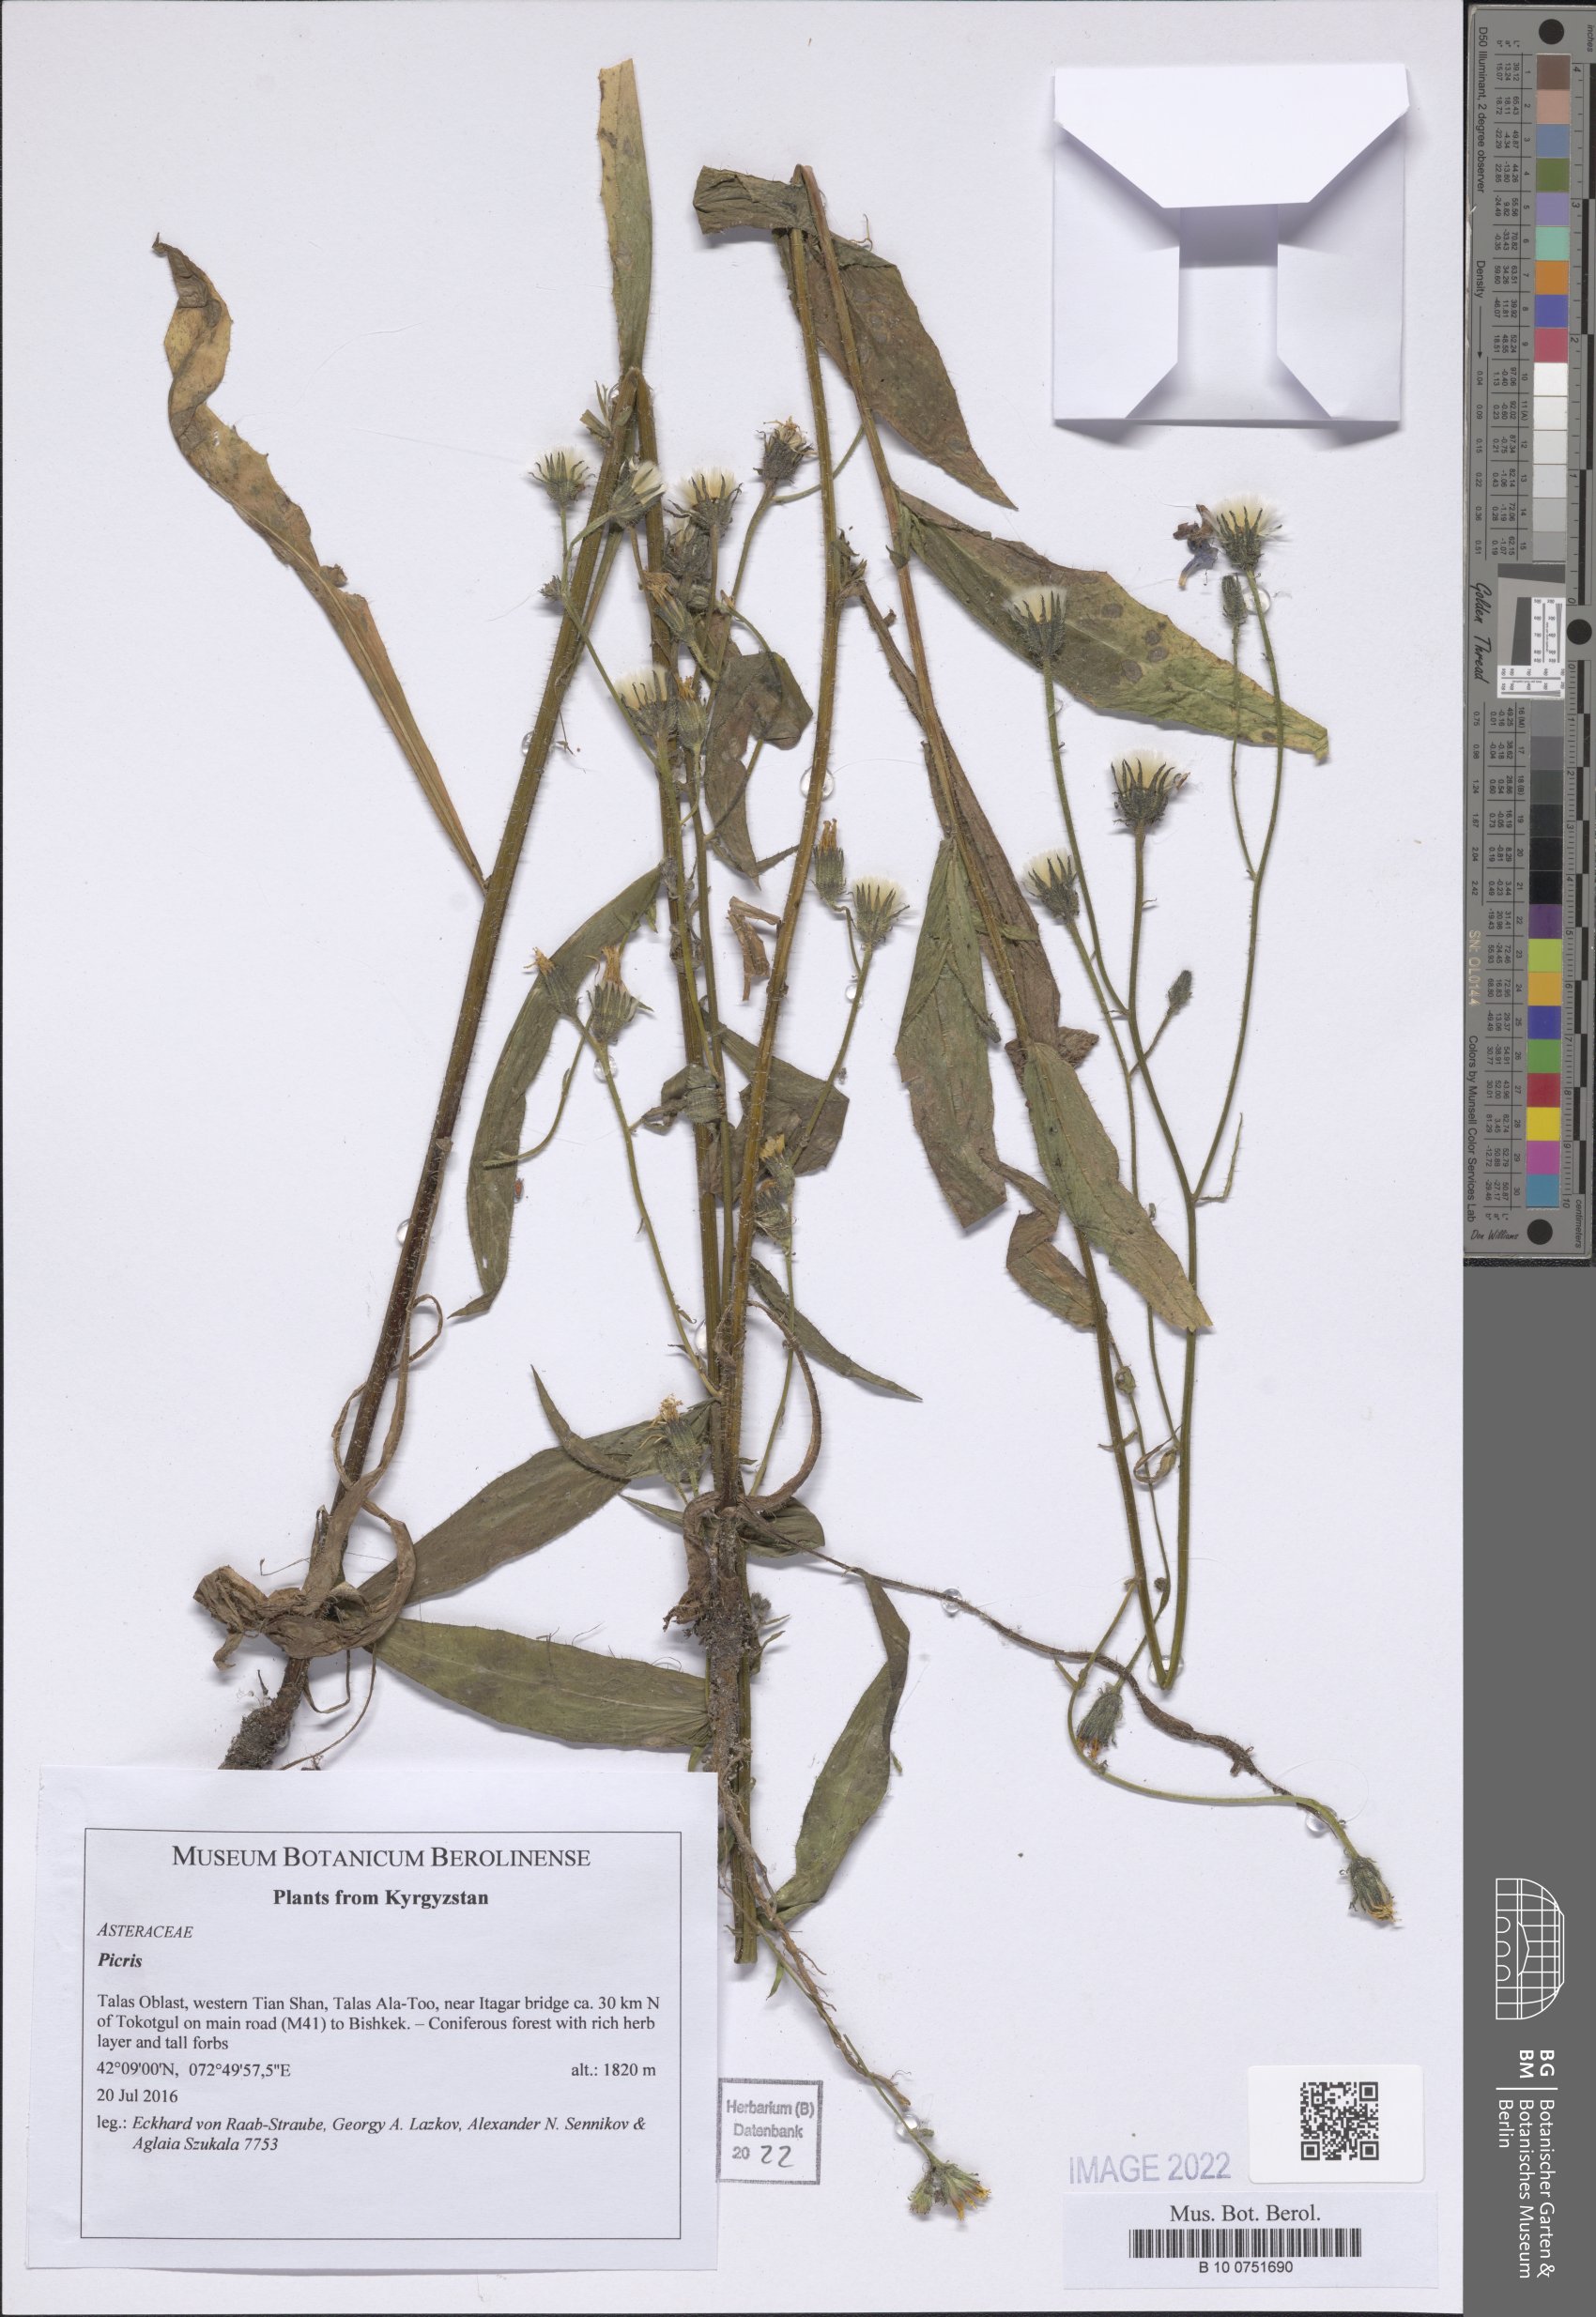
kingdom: Plantae
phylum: Tracheophyta
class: Magnoliopsida
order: Asterales
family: Asteraceae
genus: Picris
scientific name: Picris
